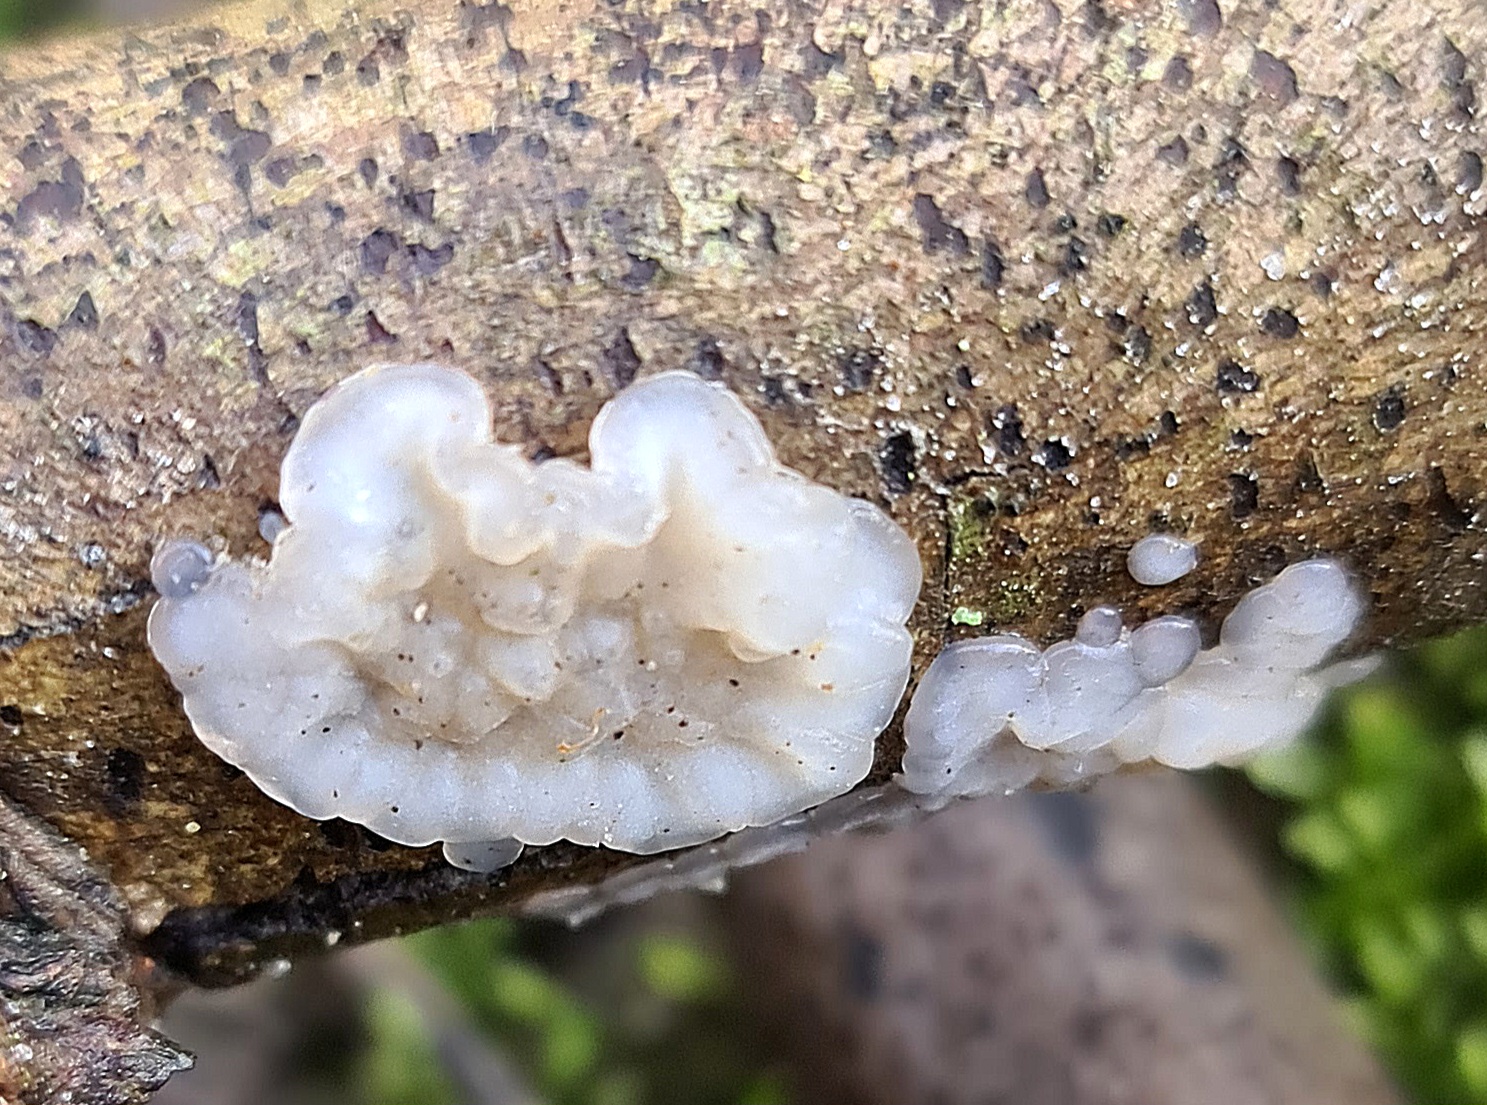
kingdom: Fungi
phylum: Basidiomycota
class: Agaricomycetes
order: Auriculariales
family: Auriculariaceae
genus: Exidia
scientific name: Exidia thuretiana
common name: hvidlig bævretop
